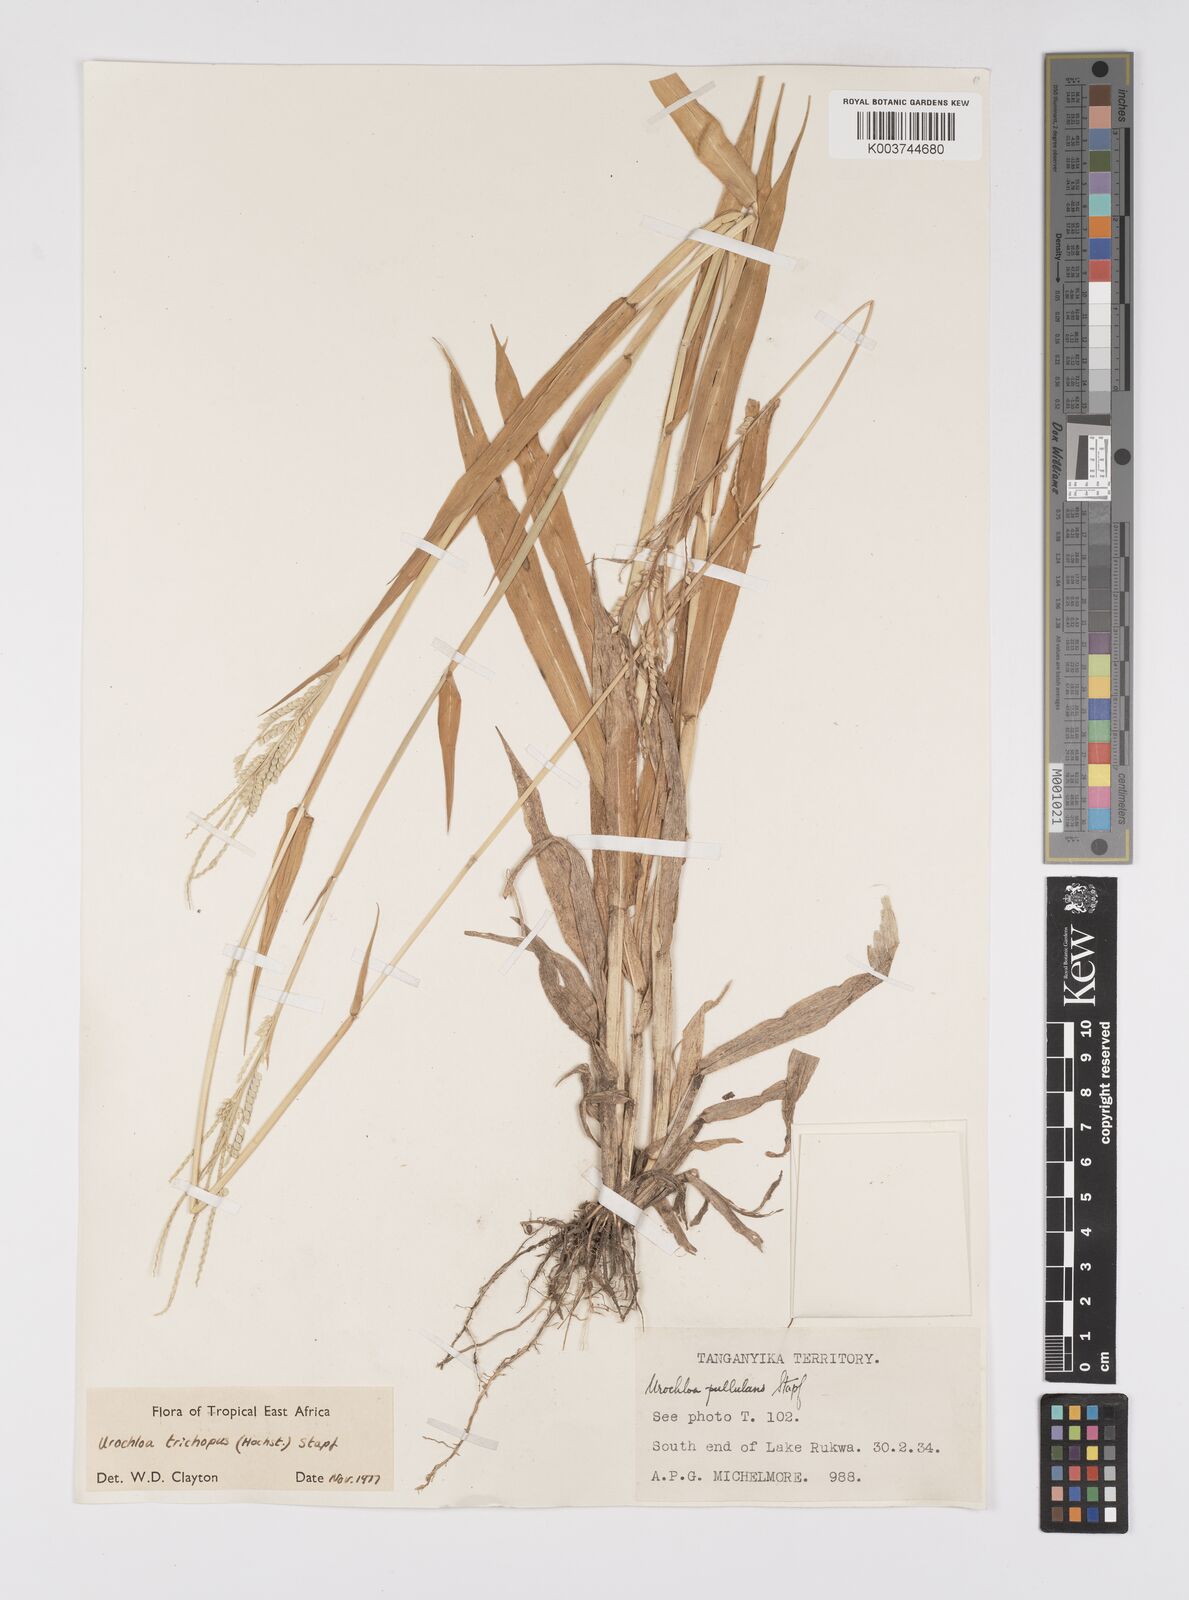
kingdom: Plantae
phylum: Tracheophyta
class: Liliopsida
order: Poales
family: Poaceae
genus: Urochloa
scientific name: Urochloa trichopus
